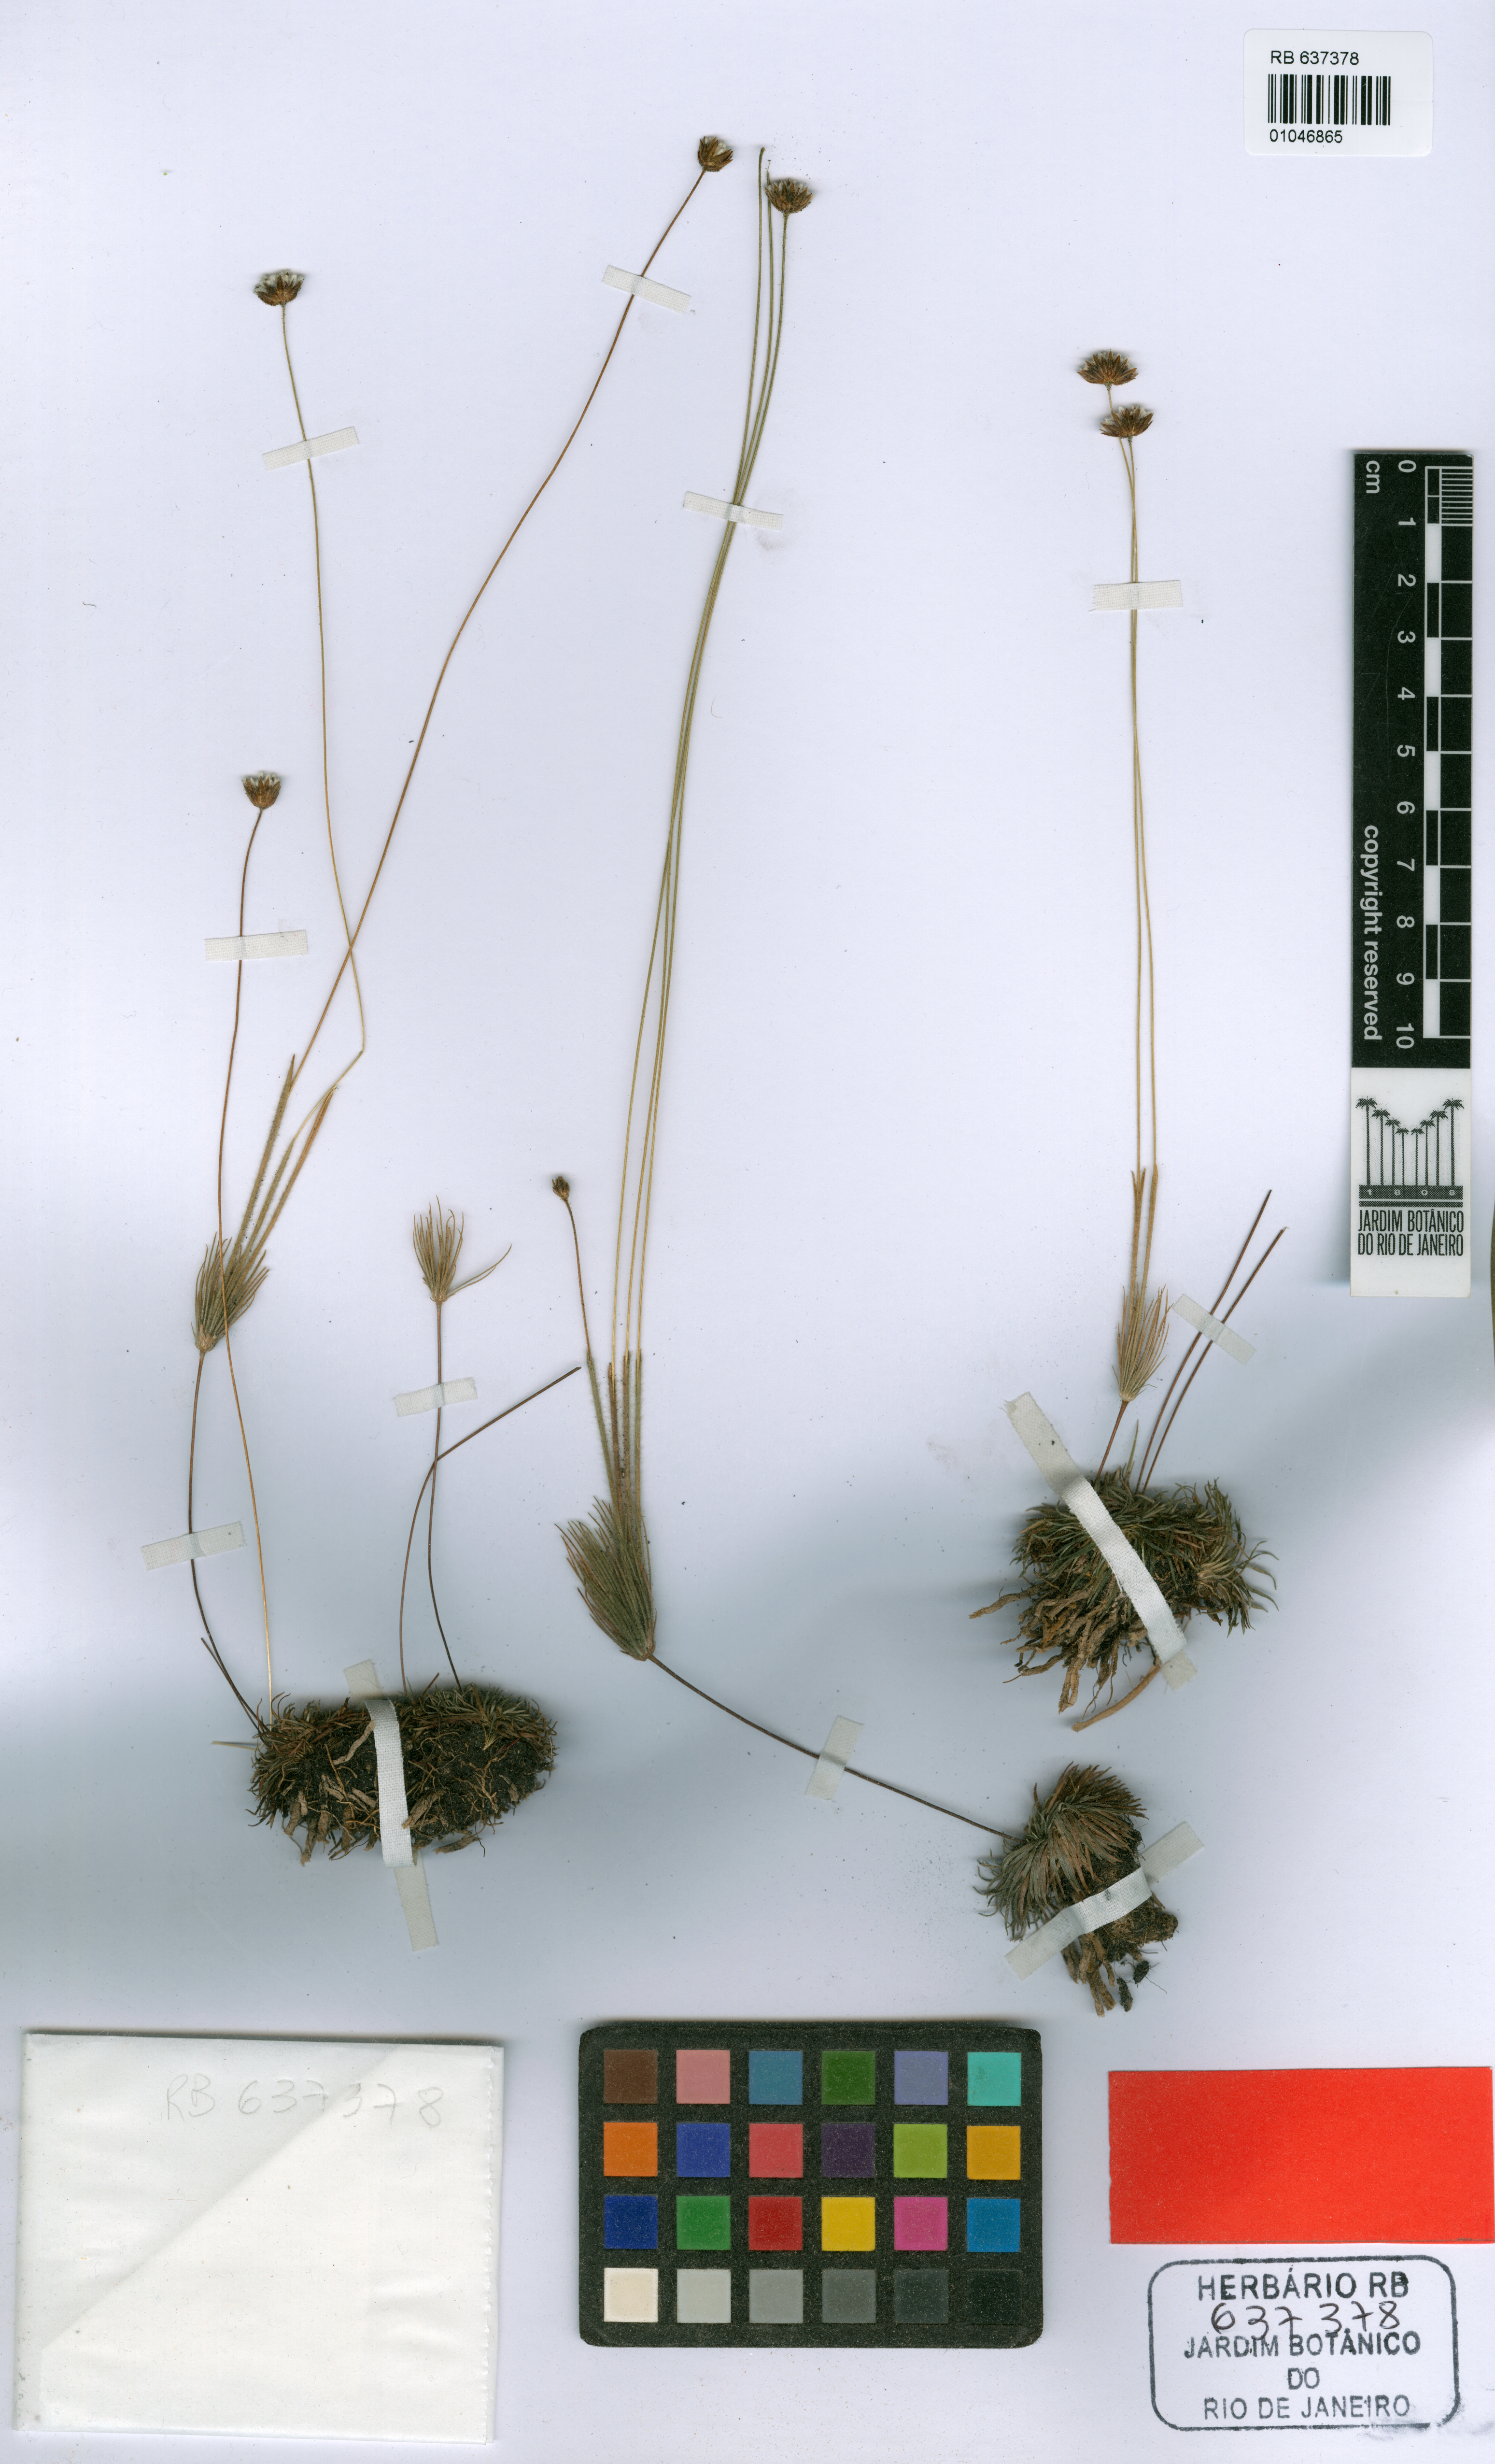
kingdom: Plantae
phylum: Tracheophyta
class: Liliopsida
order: Poales
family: Eriocaulaceae
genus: Syngonanthus
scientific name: Syngonanthus vittatus
